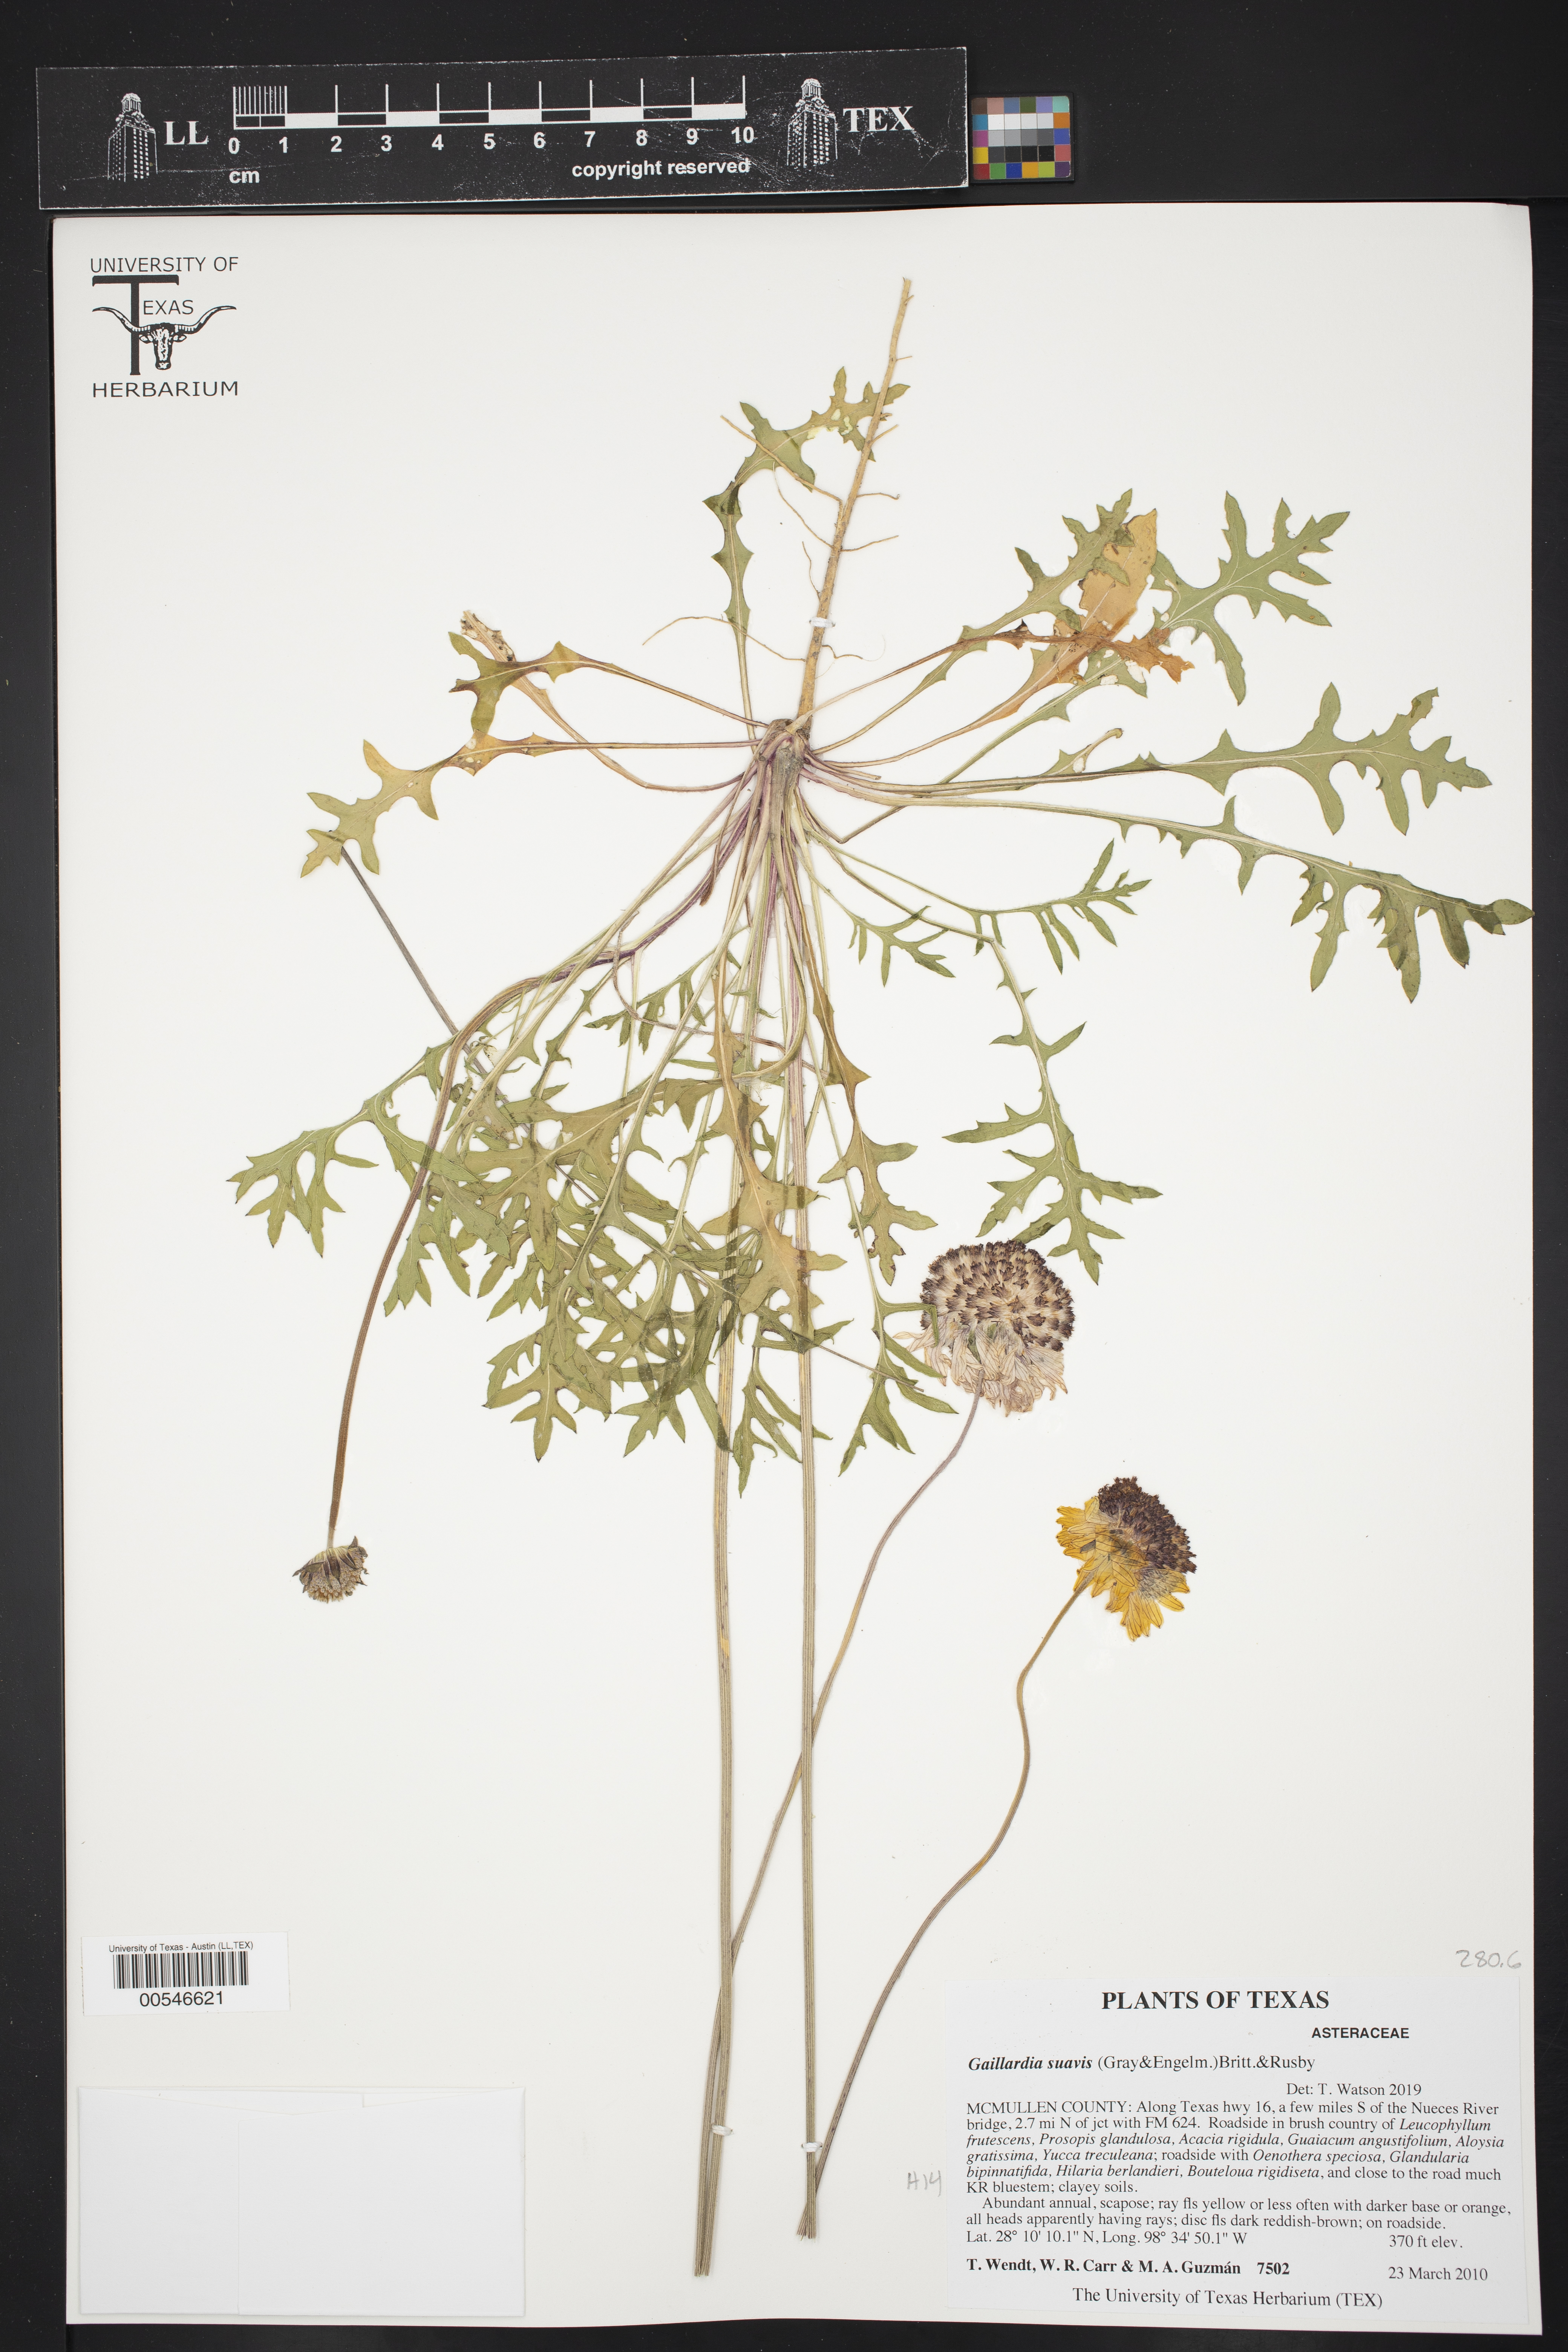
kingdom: Plantae
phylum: Tracheophyta
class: Magnoliopsida
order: Asterales
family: Asteraceae
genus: Gaillardia
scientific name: Gaillardia suavis
